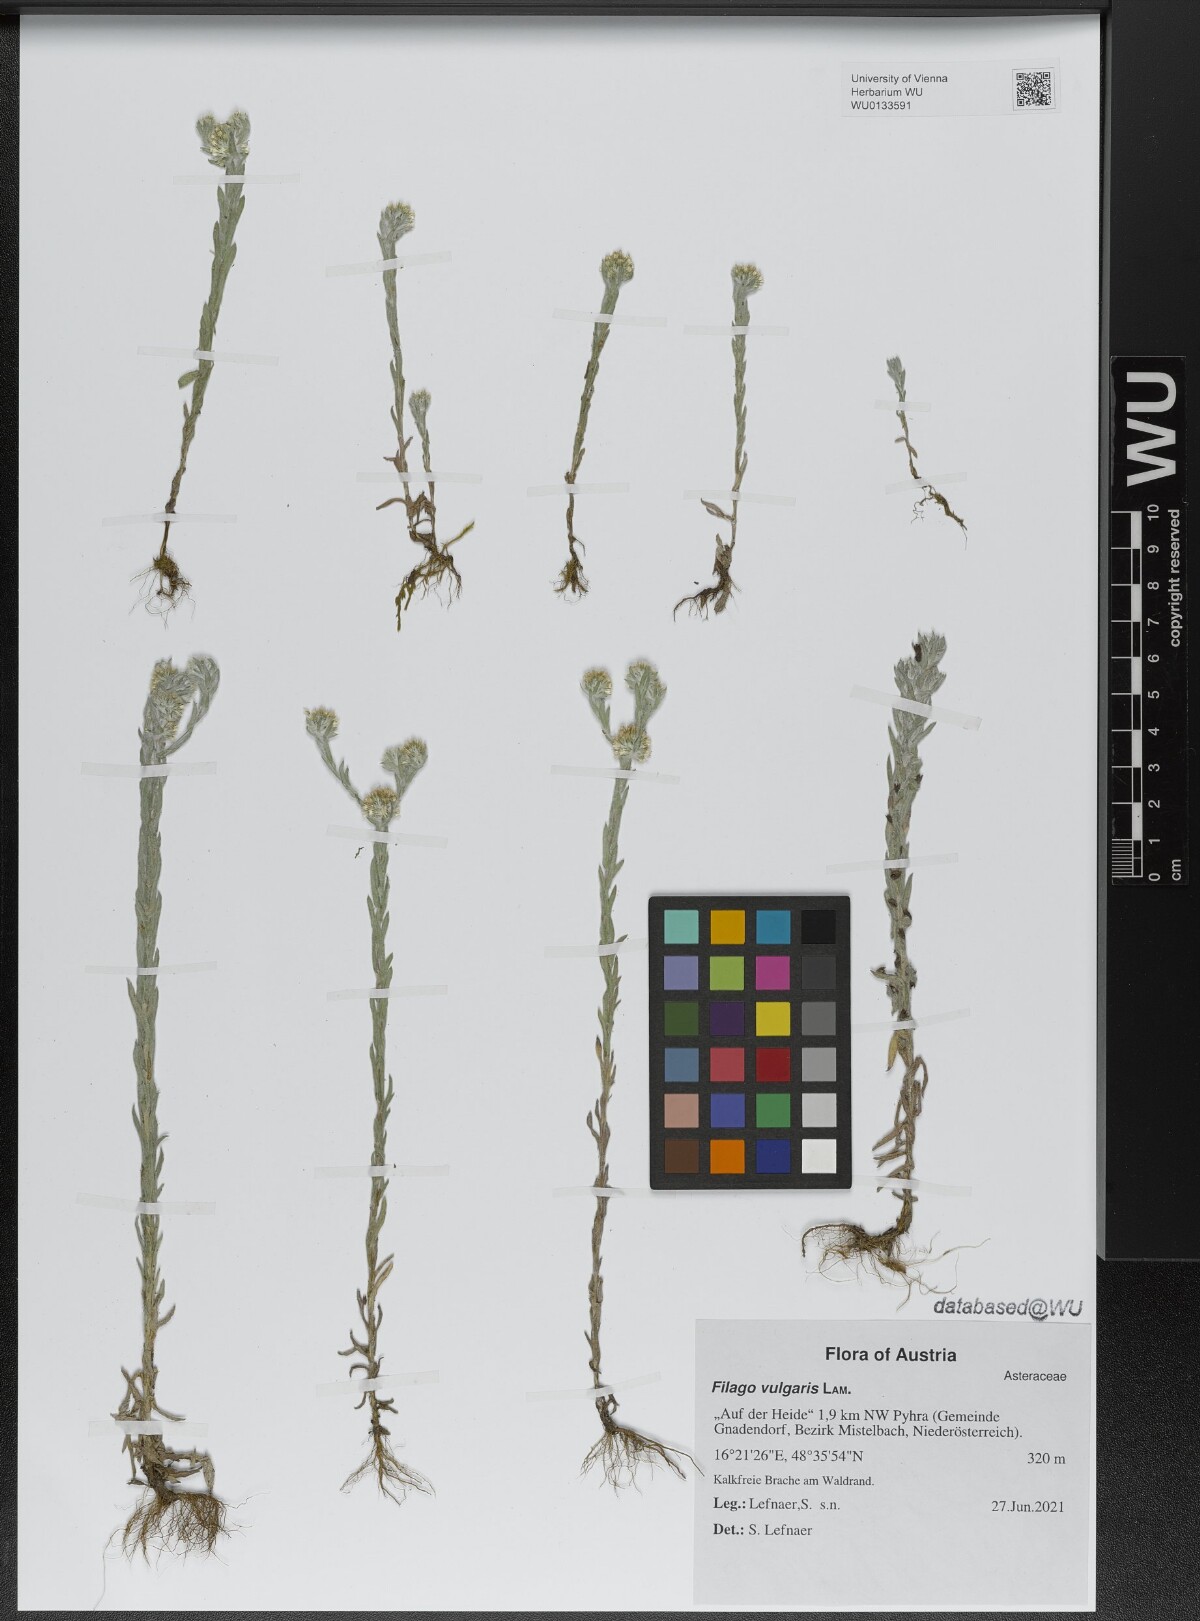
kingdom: Plantae
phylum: Tracheophyta
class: Magnoliopsida
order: Asterales
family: Asteraceae
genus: Filago
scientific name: Filago germanica
